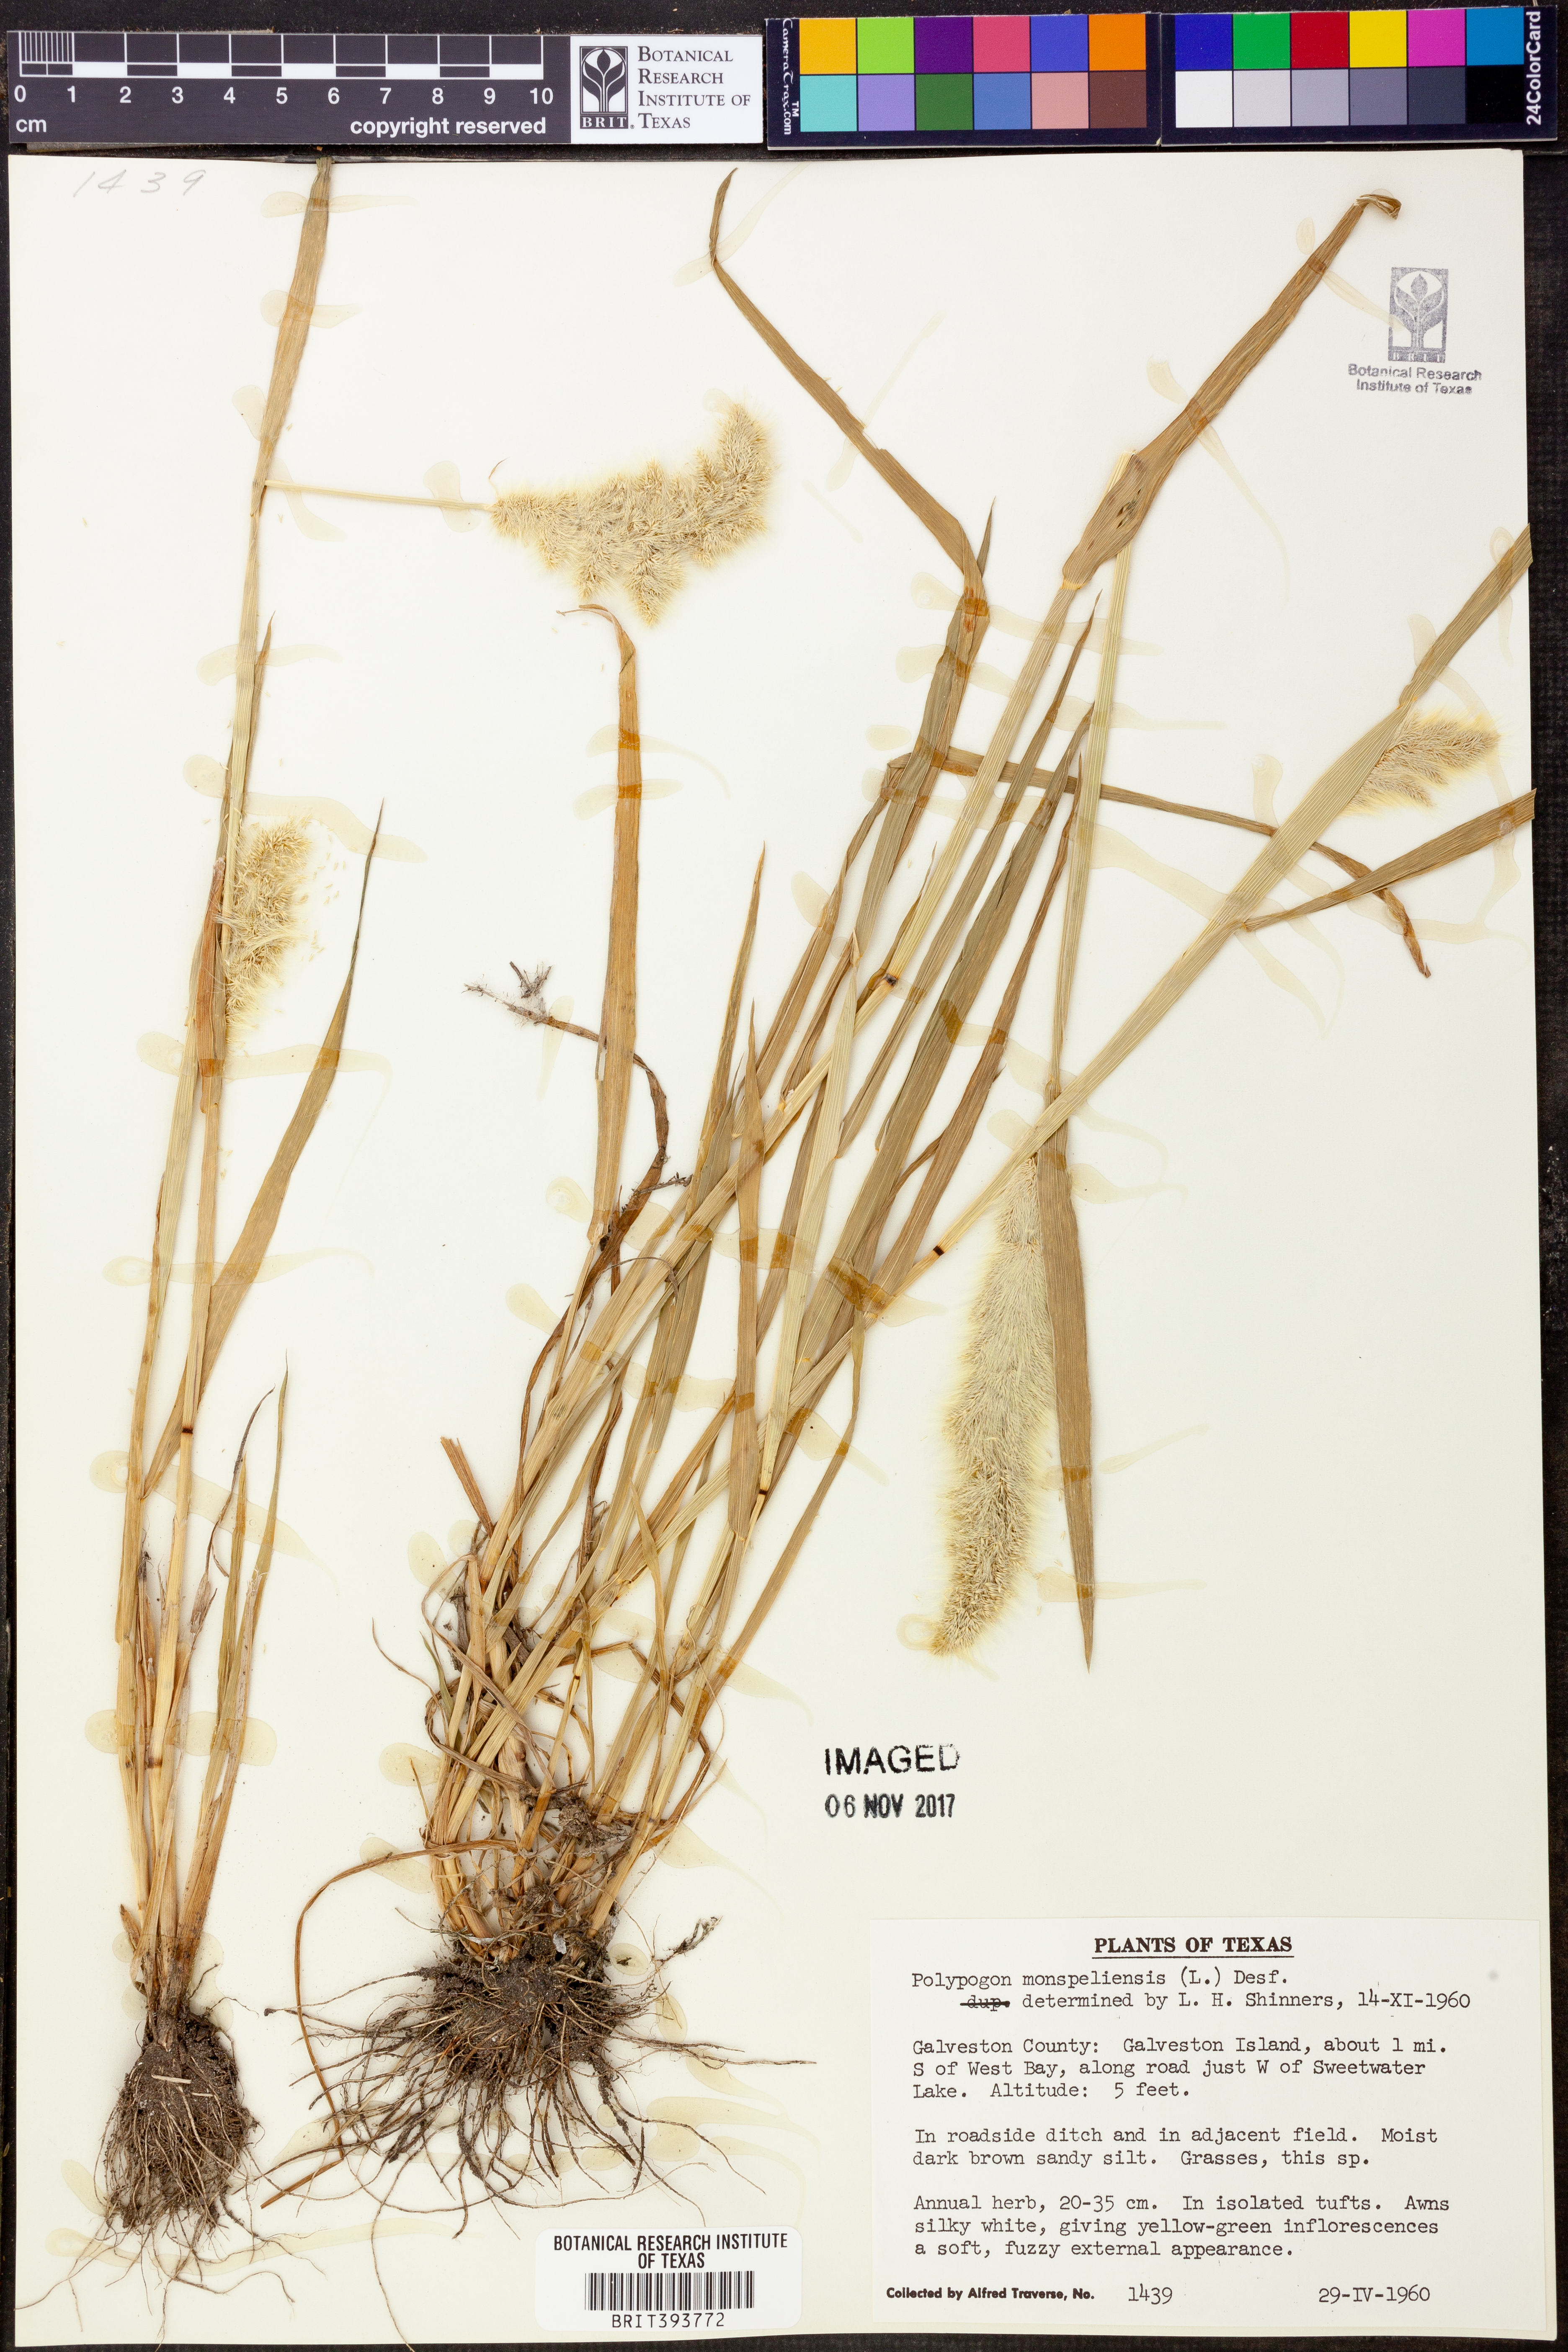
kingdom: Plantae
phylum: Tracheophyta
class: Liliopsida
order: Poales
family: Poaceae
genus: Polypogon
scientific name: Polypogon monspeliensis
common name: Annual rabbitsfoot grass
